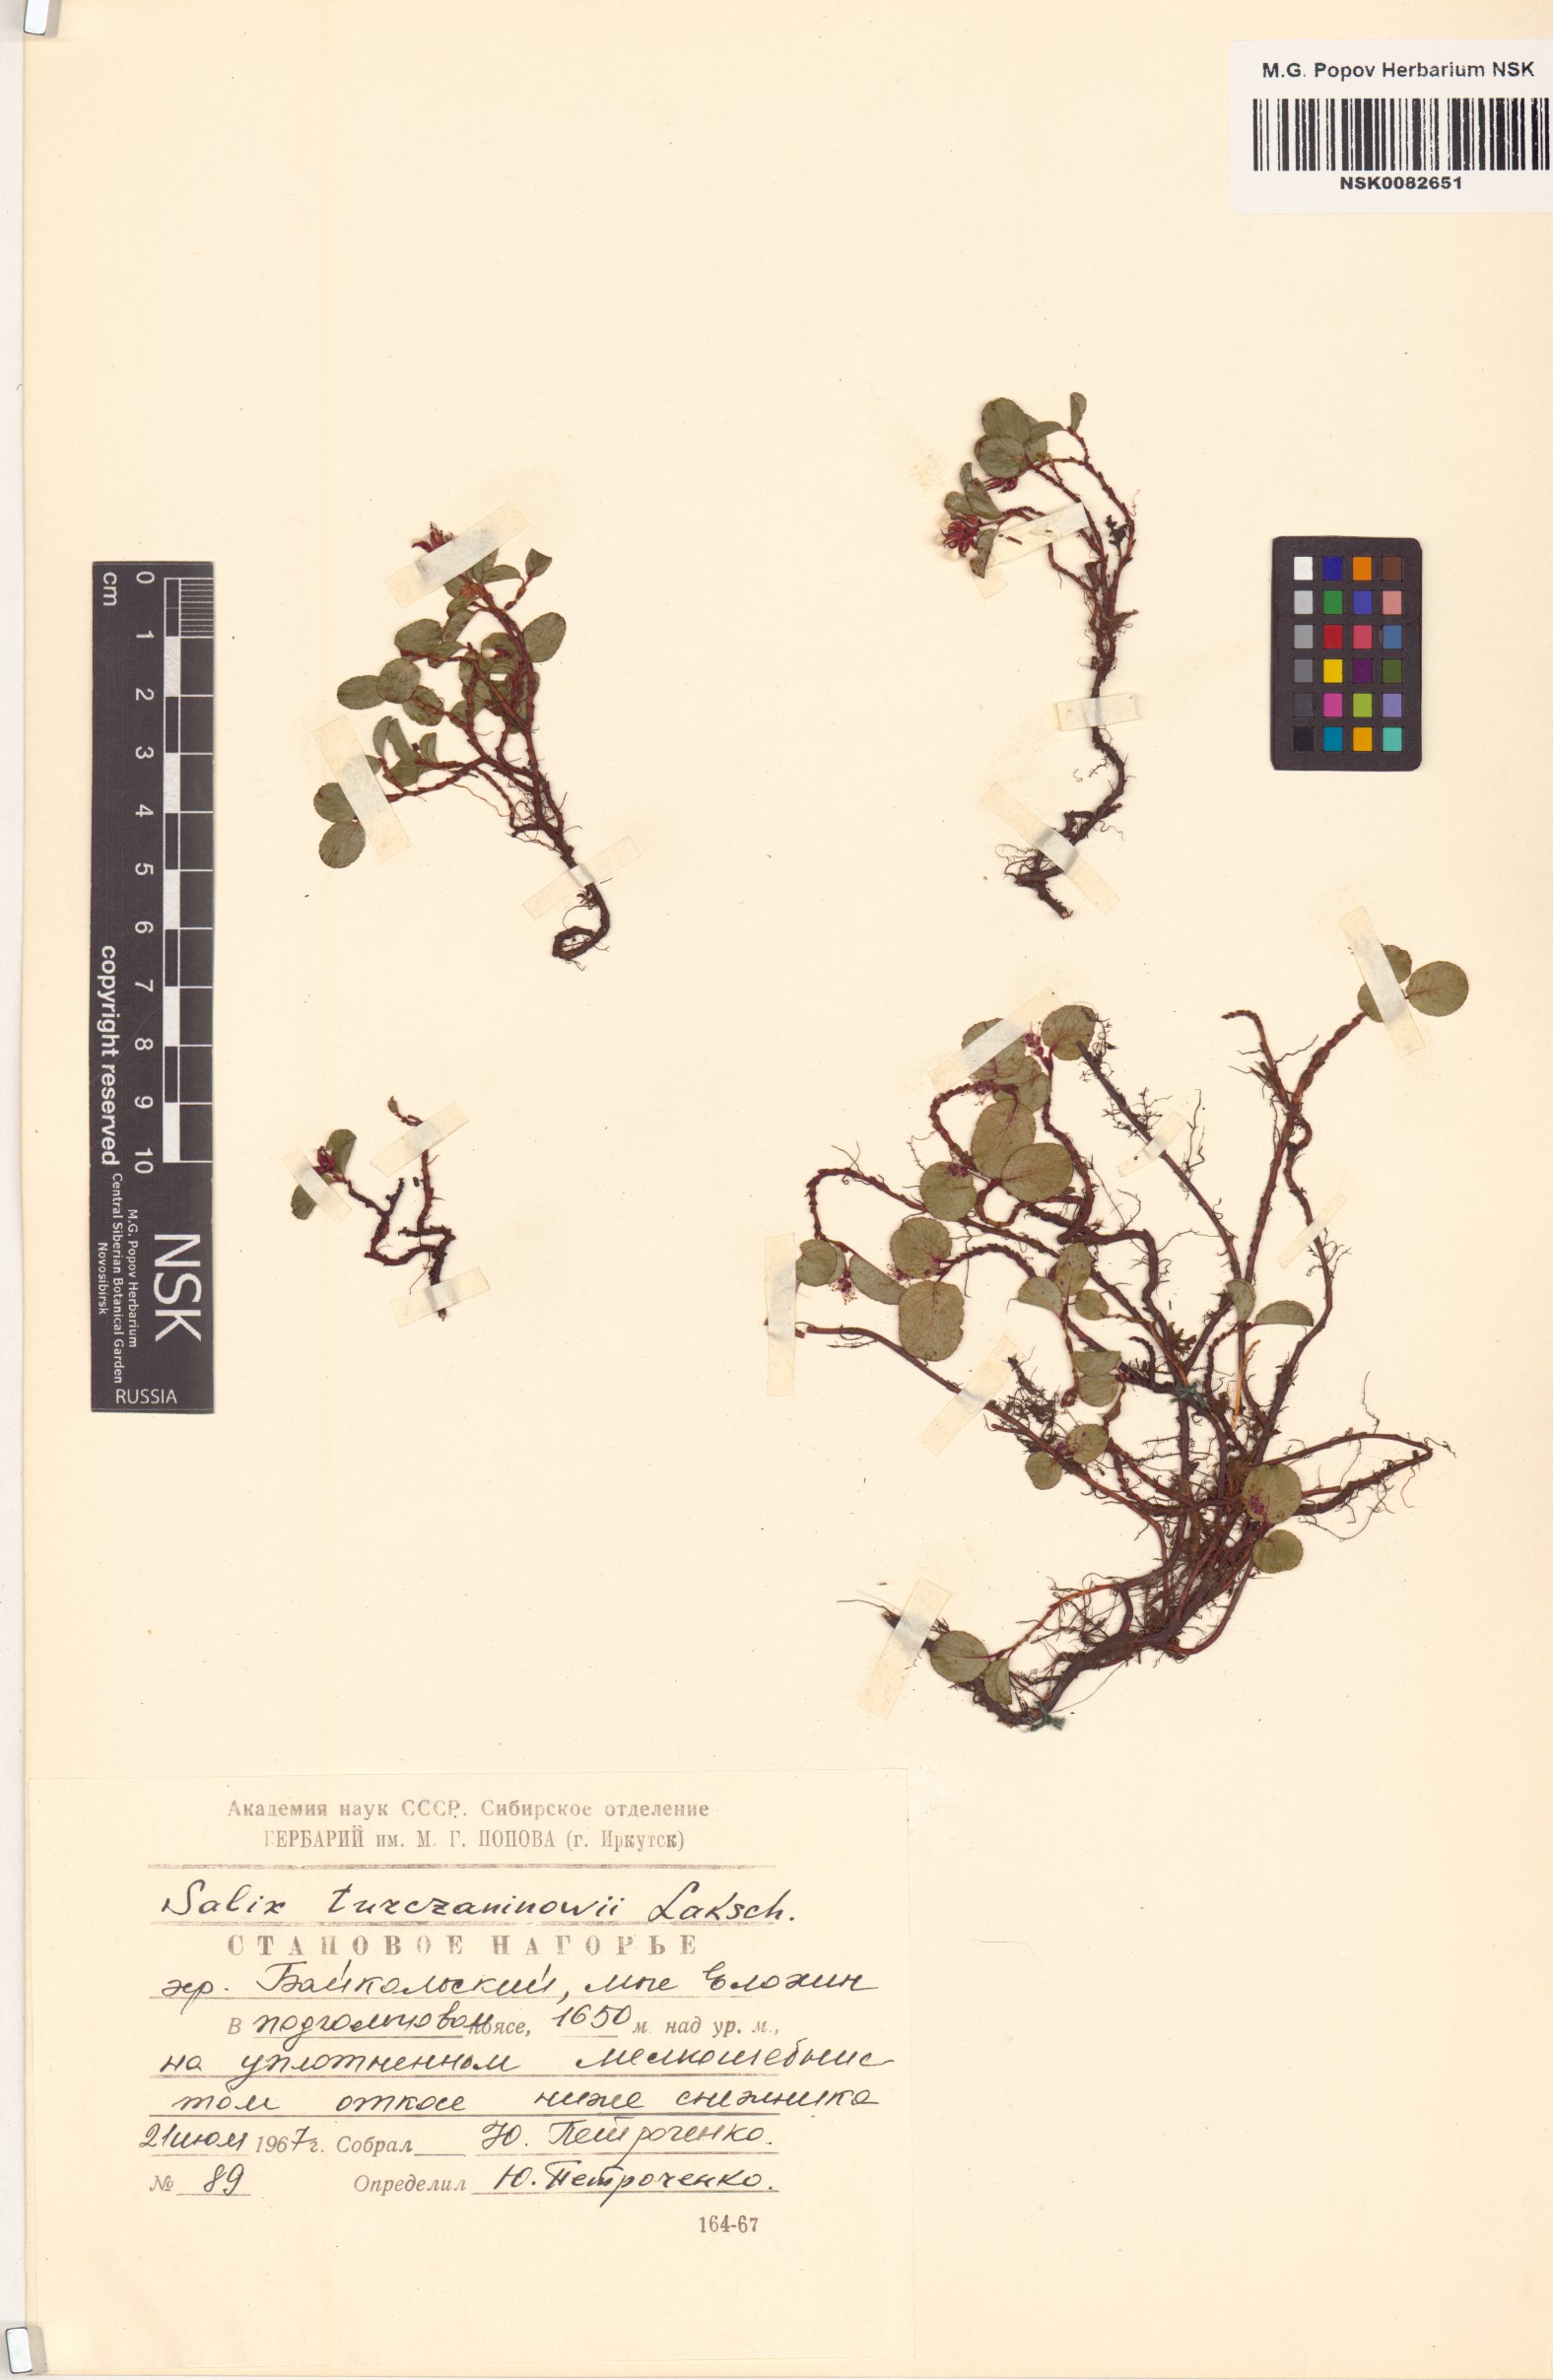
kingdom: Plantae
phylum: Tracheophyta
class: Magnoliopsida
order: Malpighiales
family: Salicaceae
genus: Salix
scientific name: Salix turczaninowii
